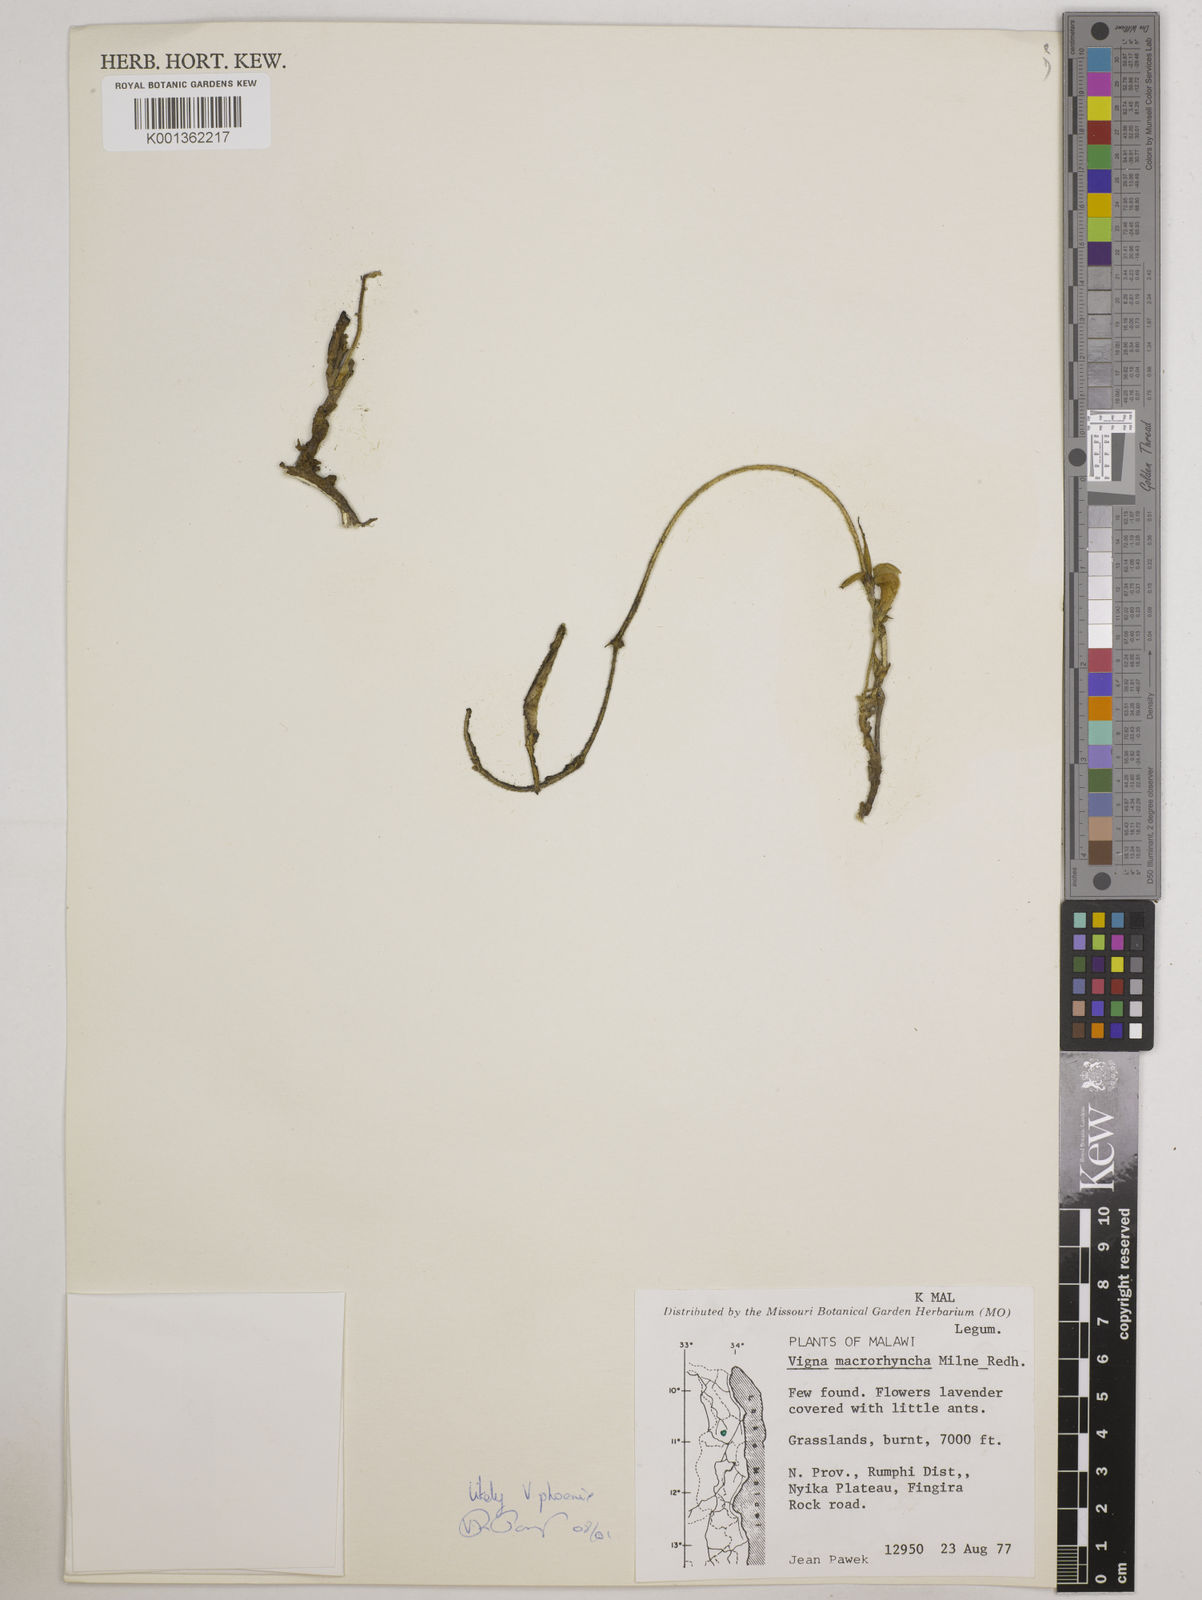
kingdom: Plantae
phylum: Tracheophyta
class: Magnoliopsida
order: Fabales
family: Fabaceae
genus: Wajira
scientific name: Wajira grahamiana
